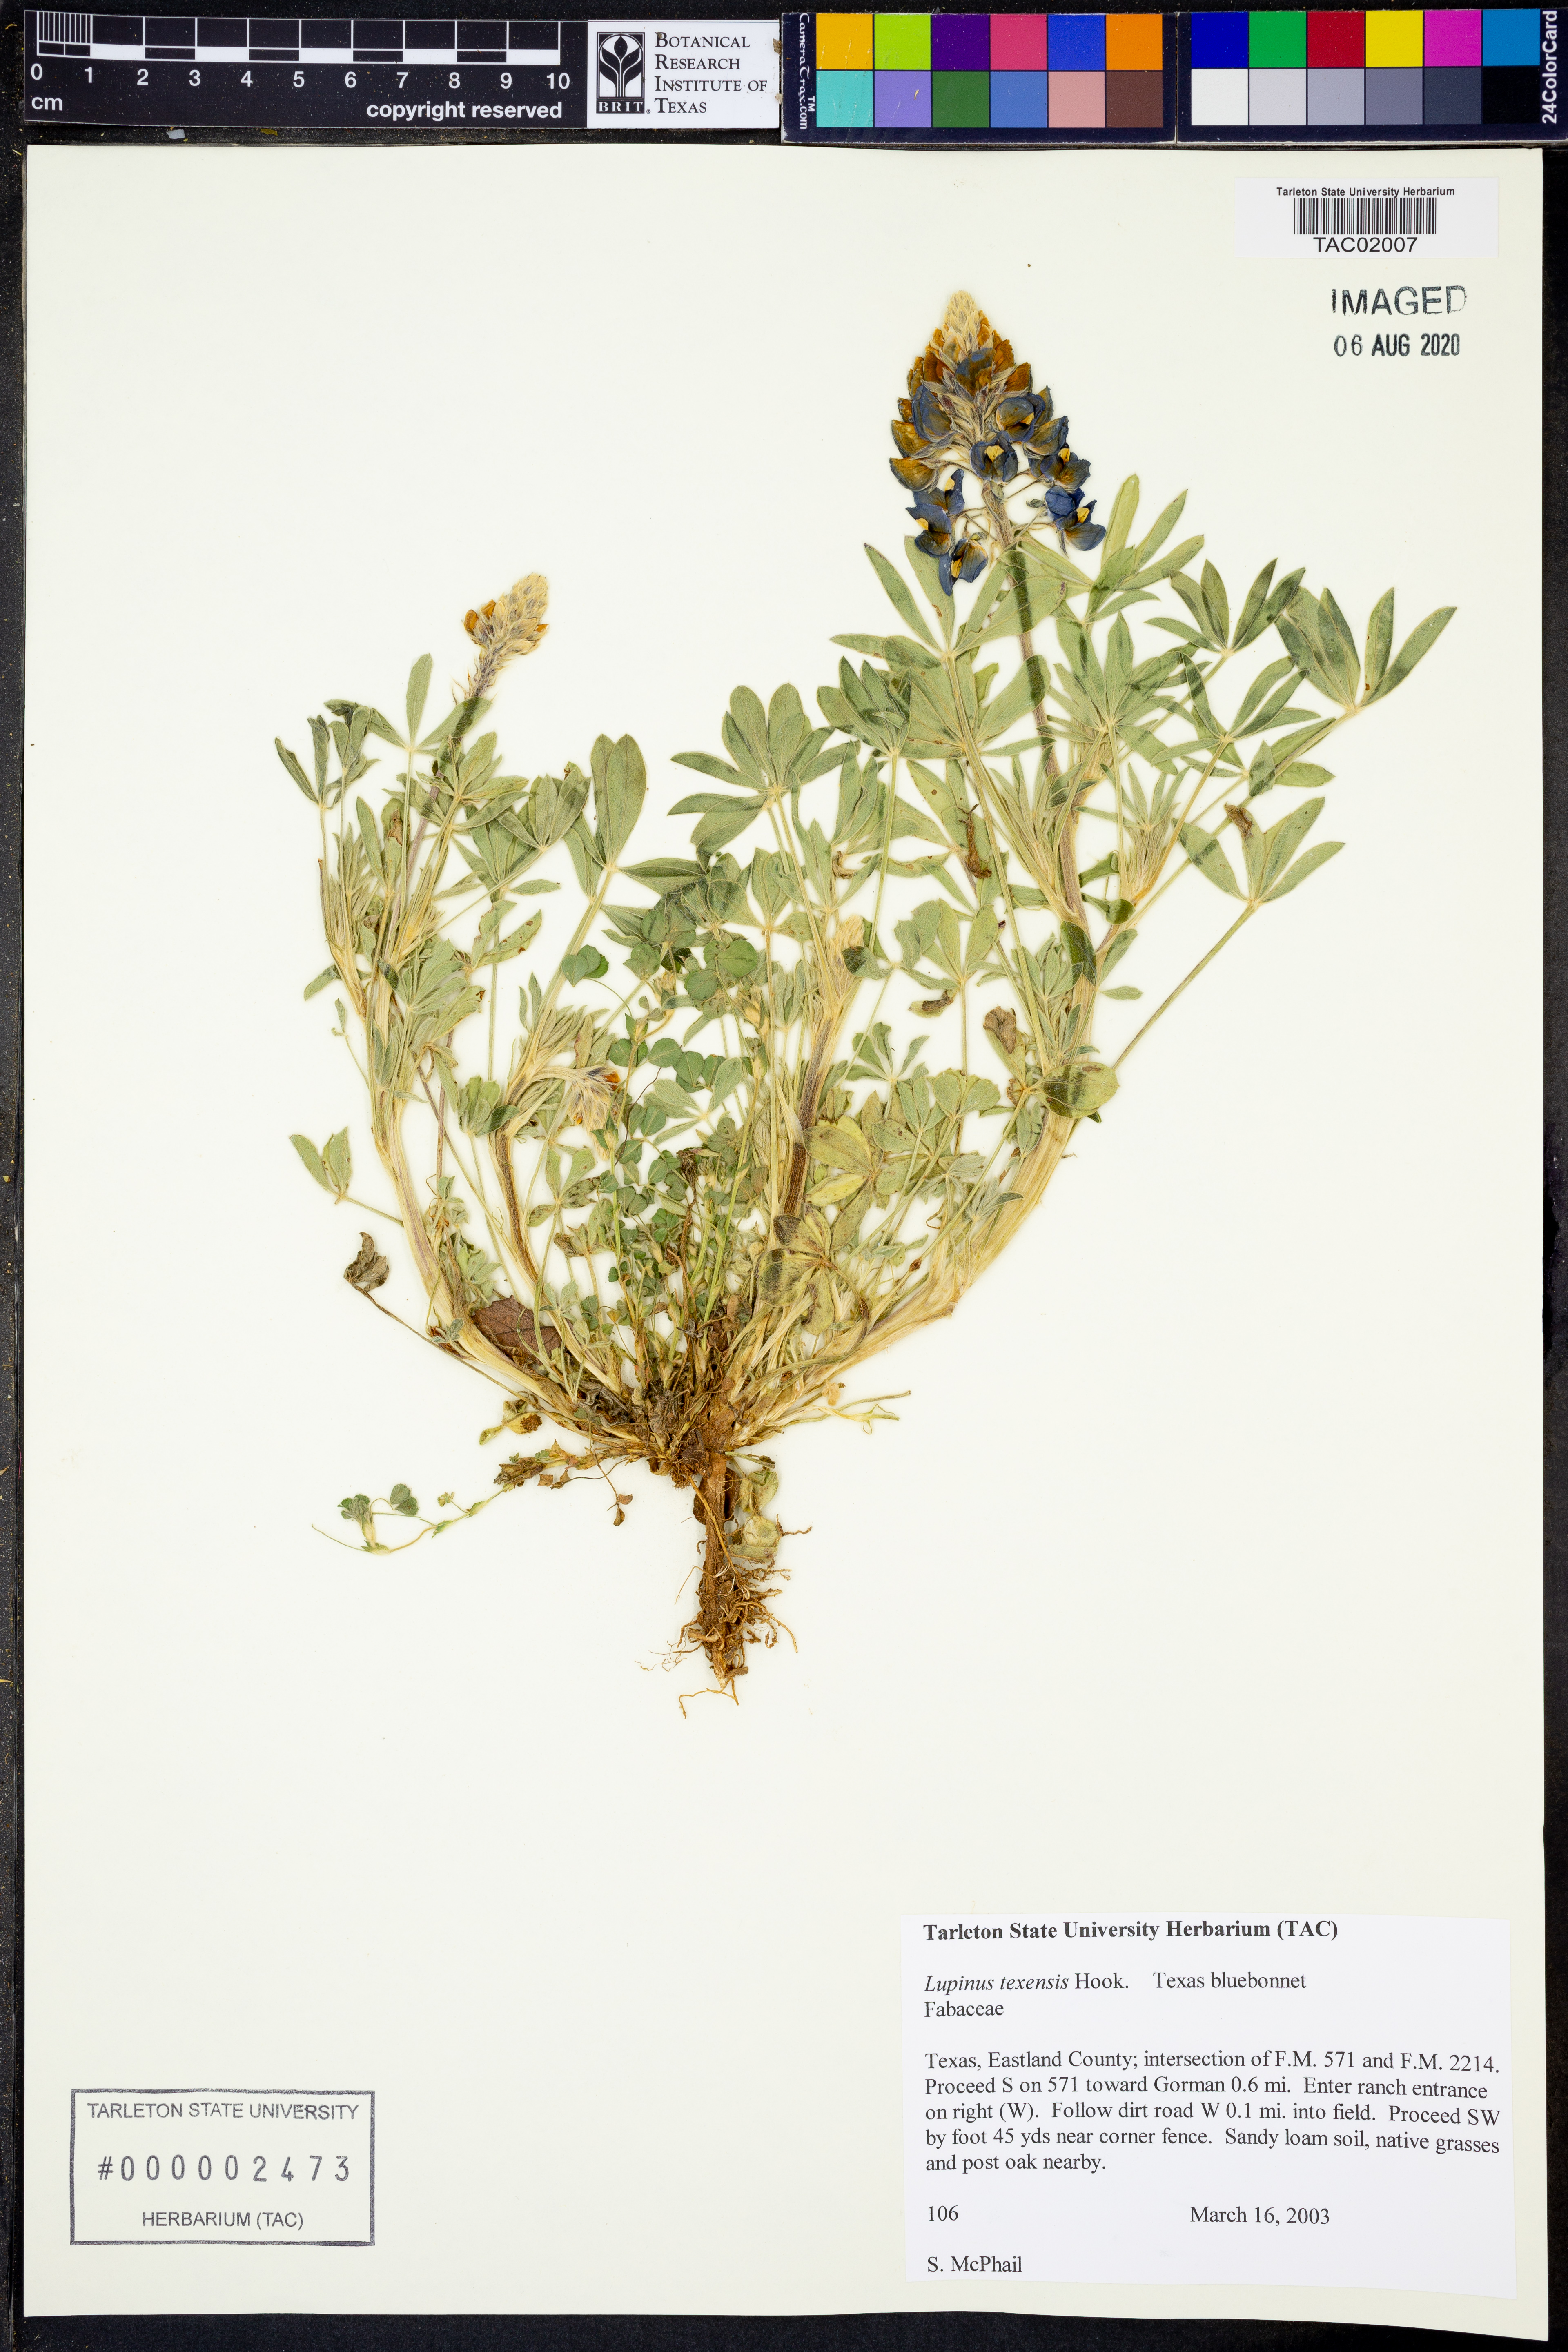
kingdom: Plantae
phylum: Tracheophyta
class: Magnoliopsida
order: Fabales
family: Fabaceae
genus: Lupinus
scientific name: Lupinus texensis
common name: Texas bluebonnet
